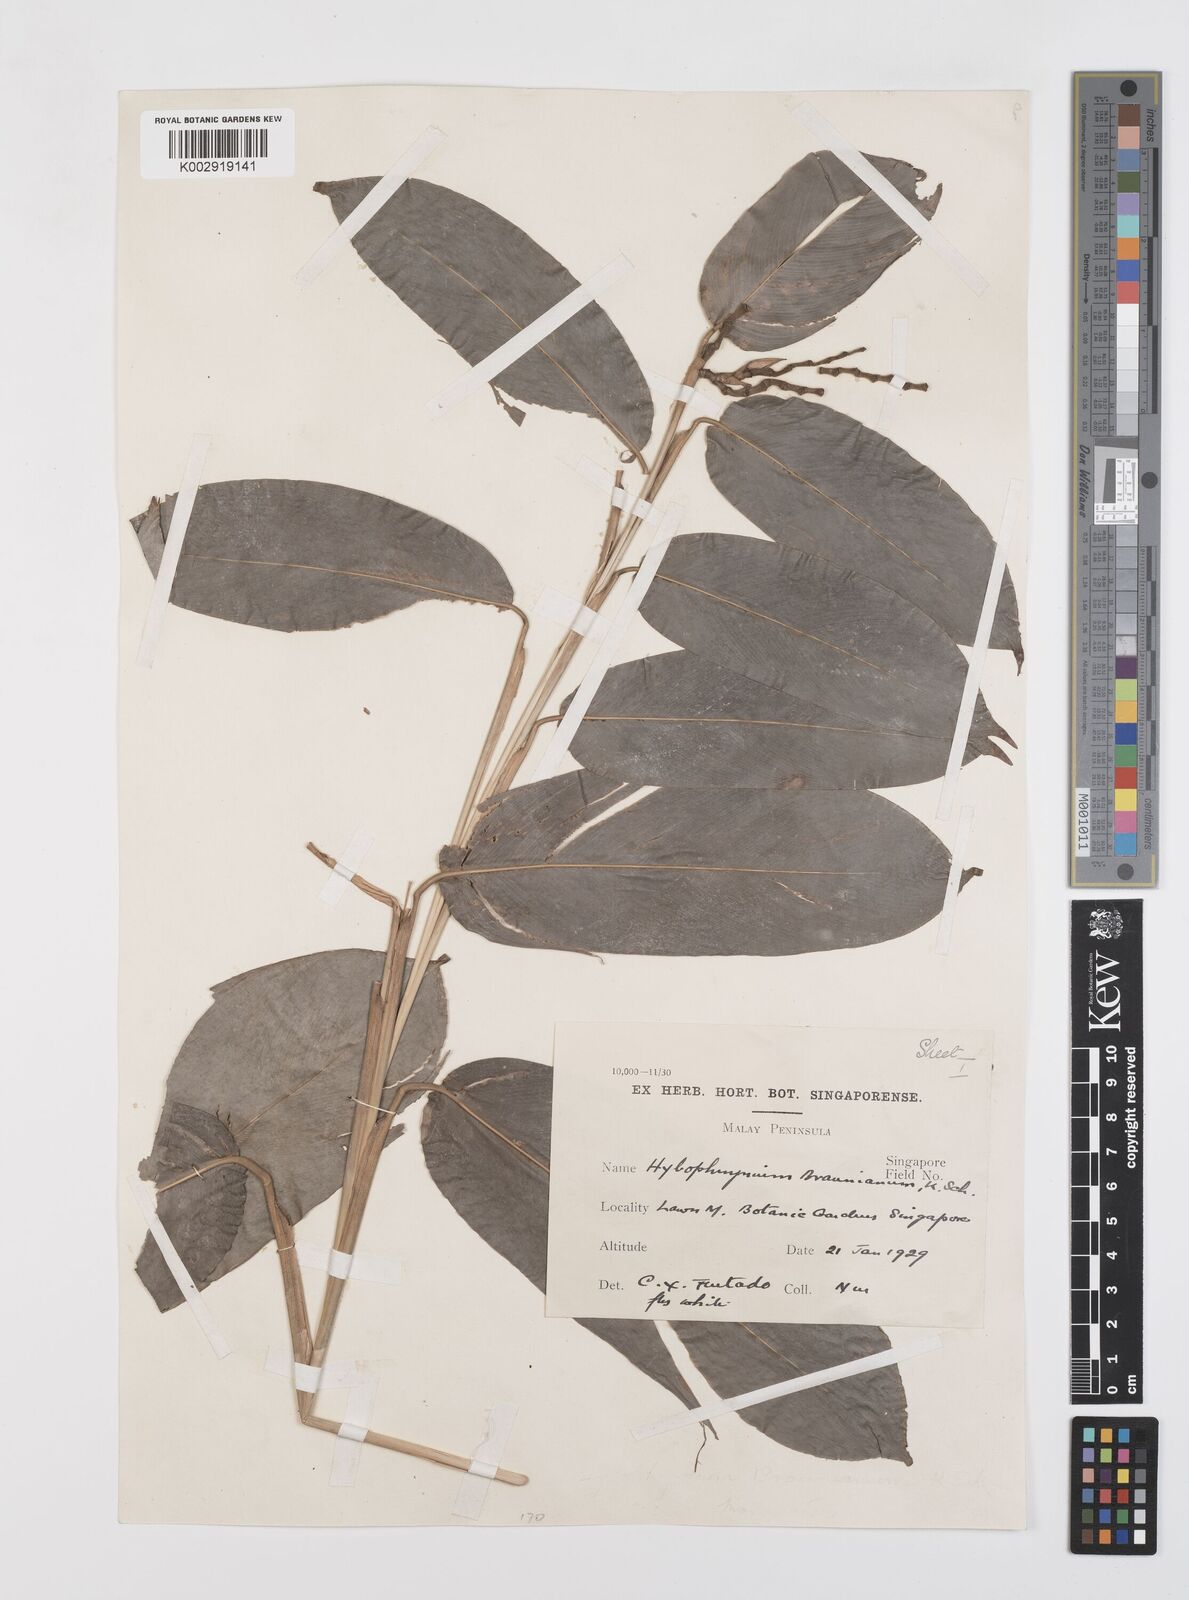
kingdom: Plantae
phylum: Tracheophyta
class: Liliopsida
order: Zingiberales
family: Marantaceae
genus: Trachyphrynium
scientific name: Trachyphrynium braunianum
